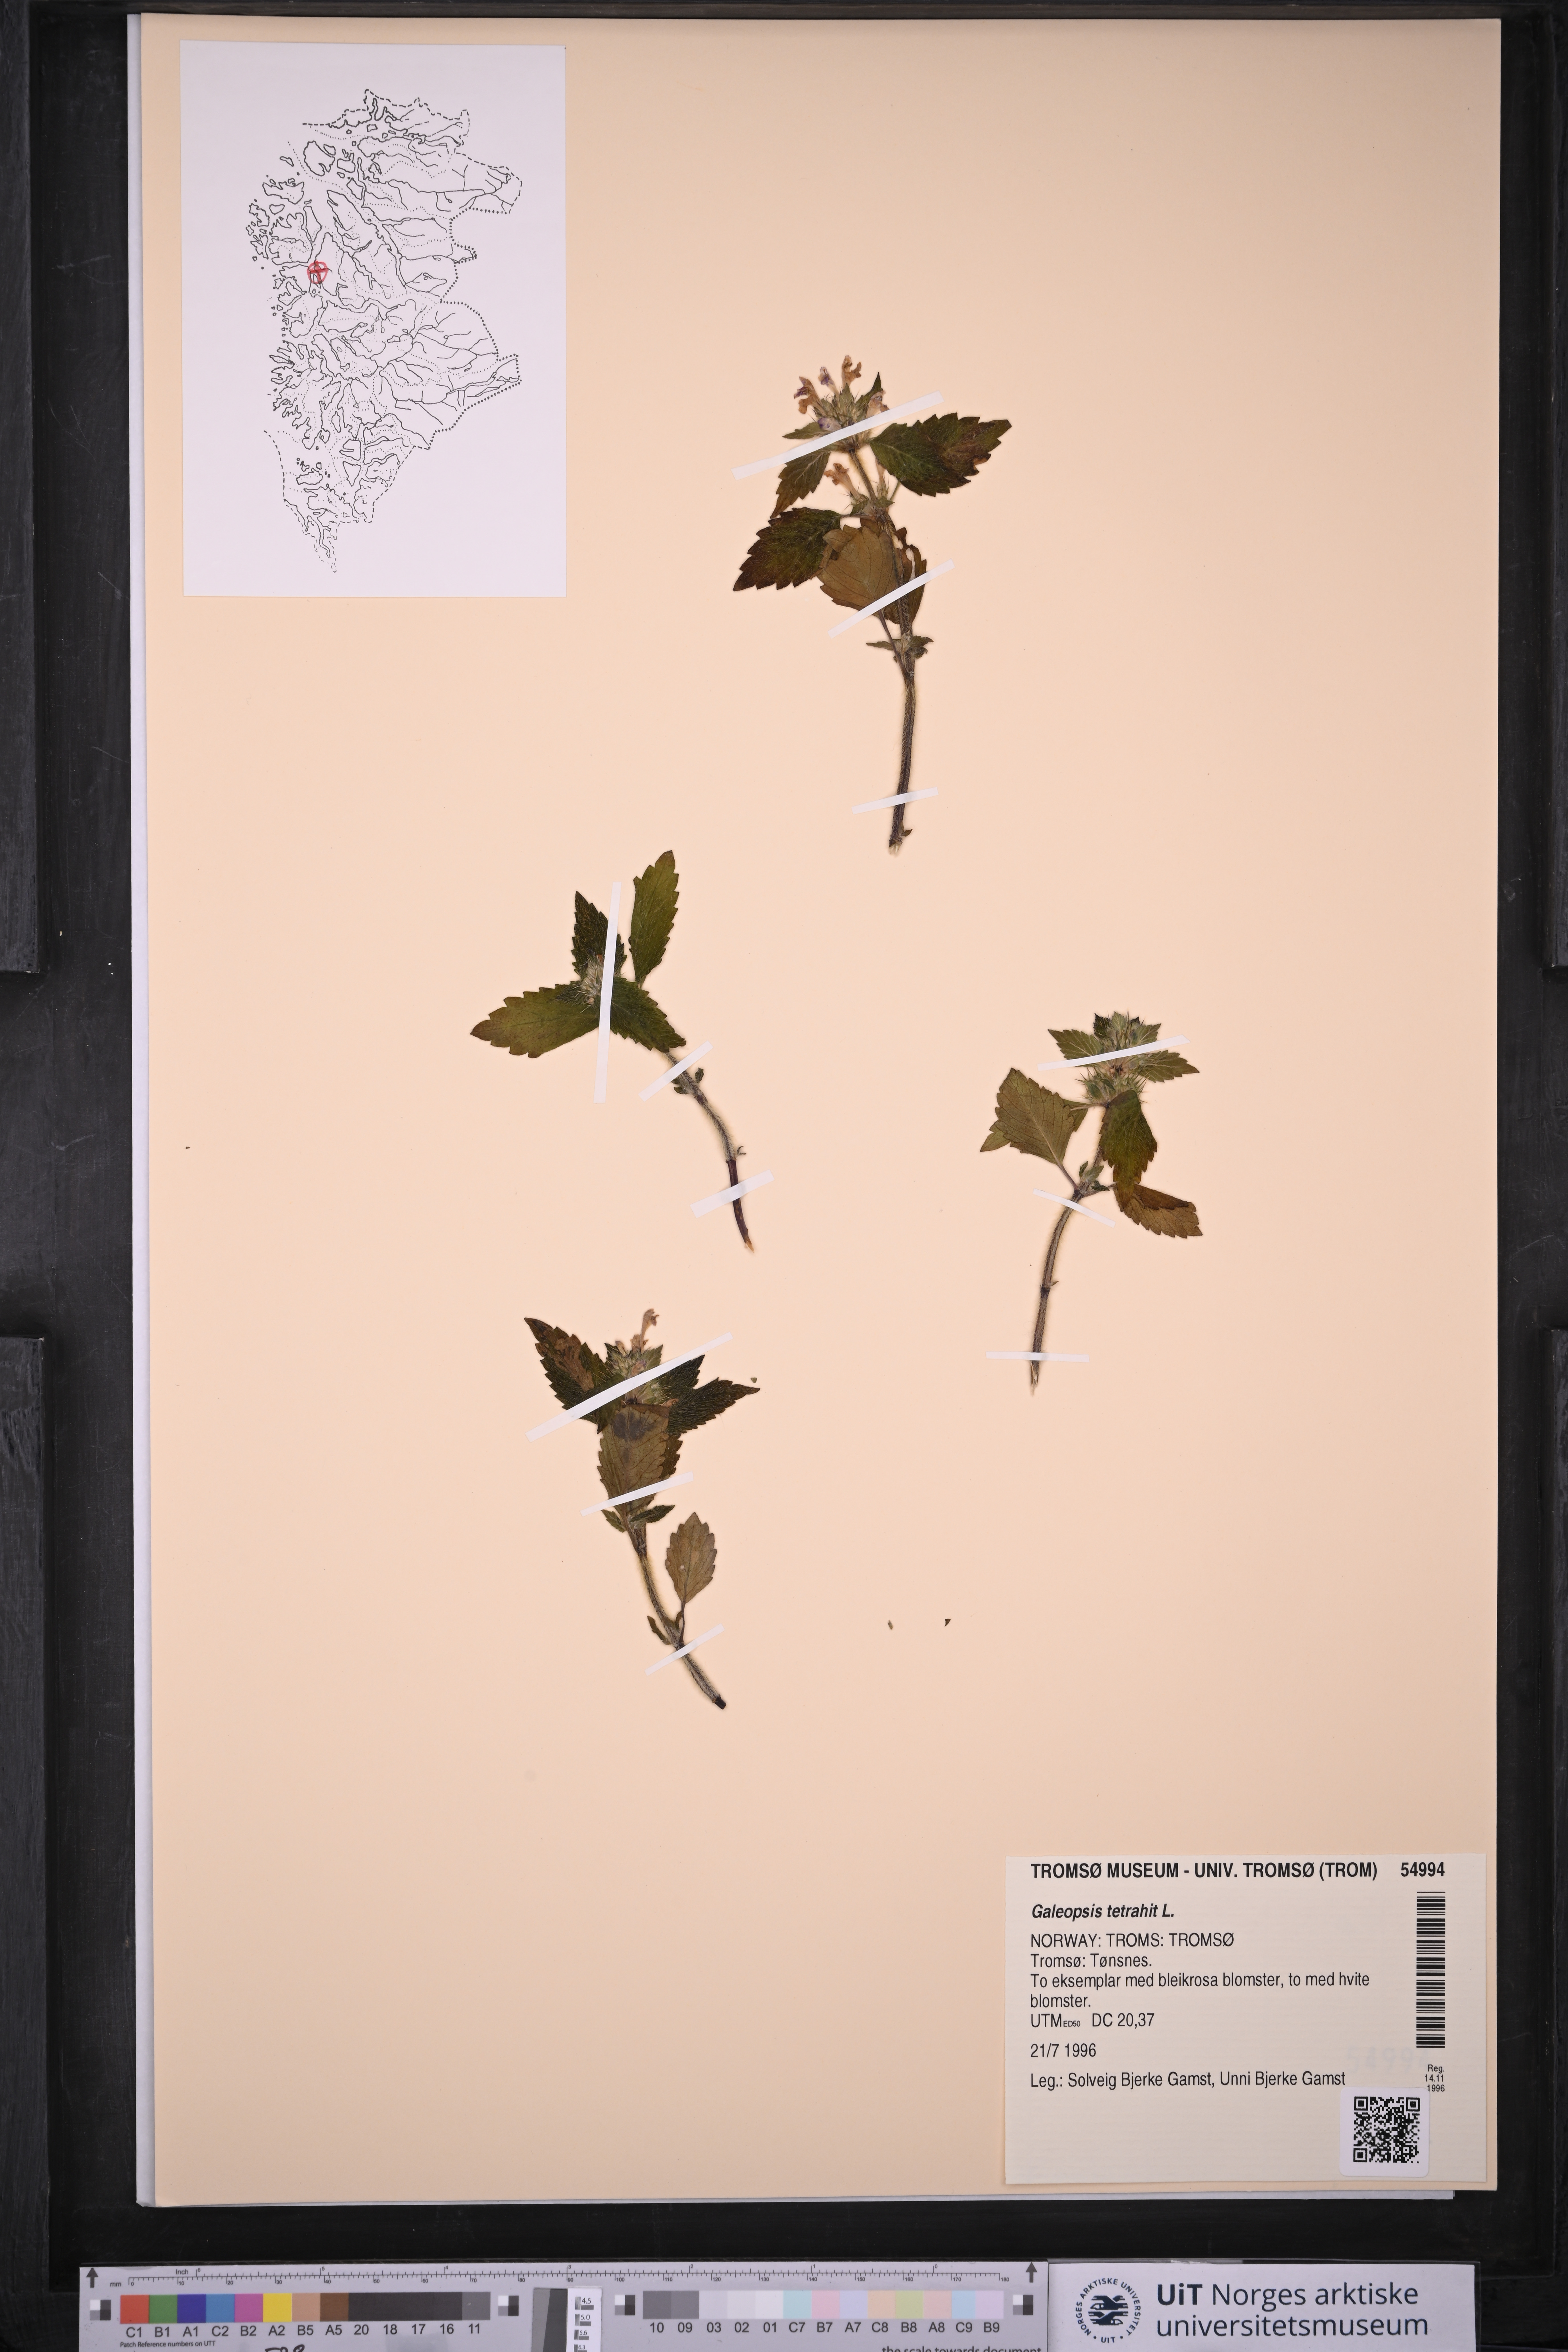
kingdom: Plantae
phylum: Tracheophyta
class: Magnoliopsida
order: Lamiales
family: Lamiaceae
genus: Galeopsis
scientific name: Galeopsis tetrahit
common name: Common hemp-nettle
